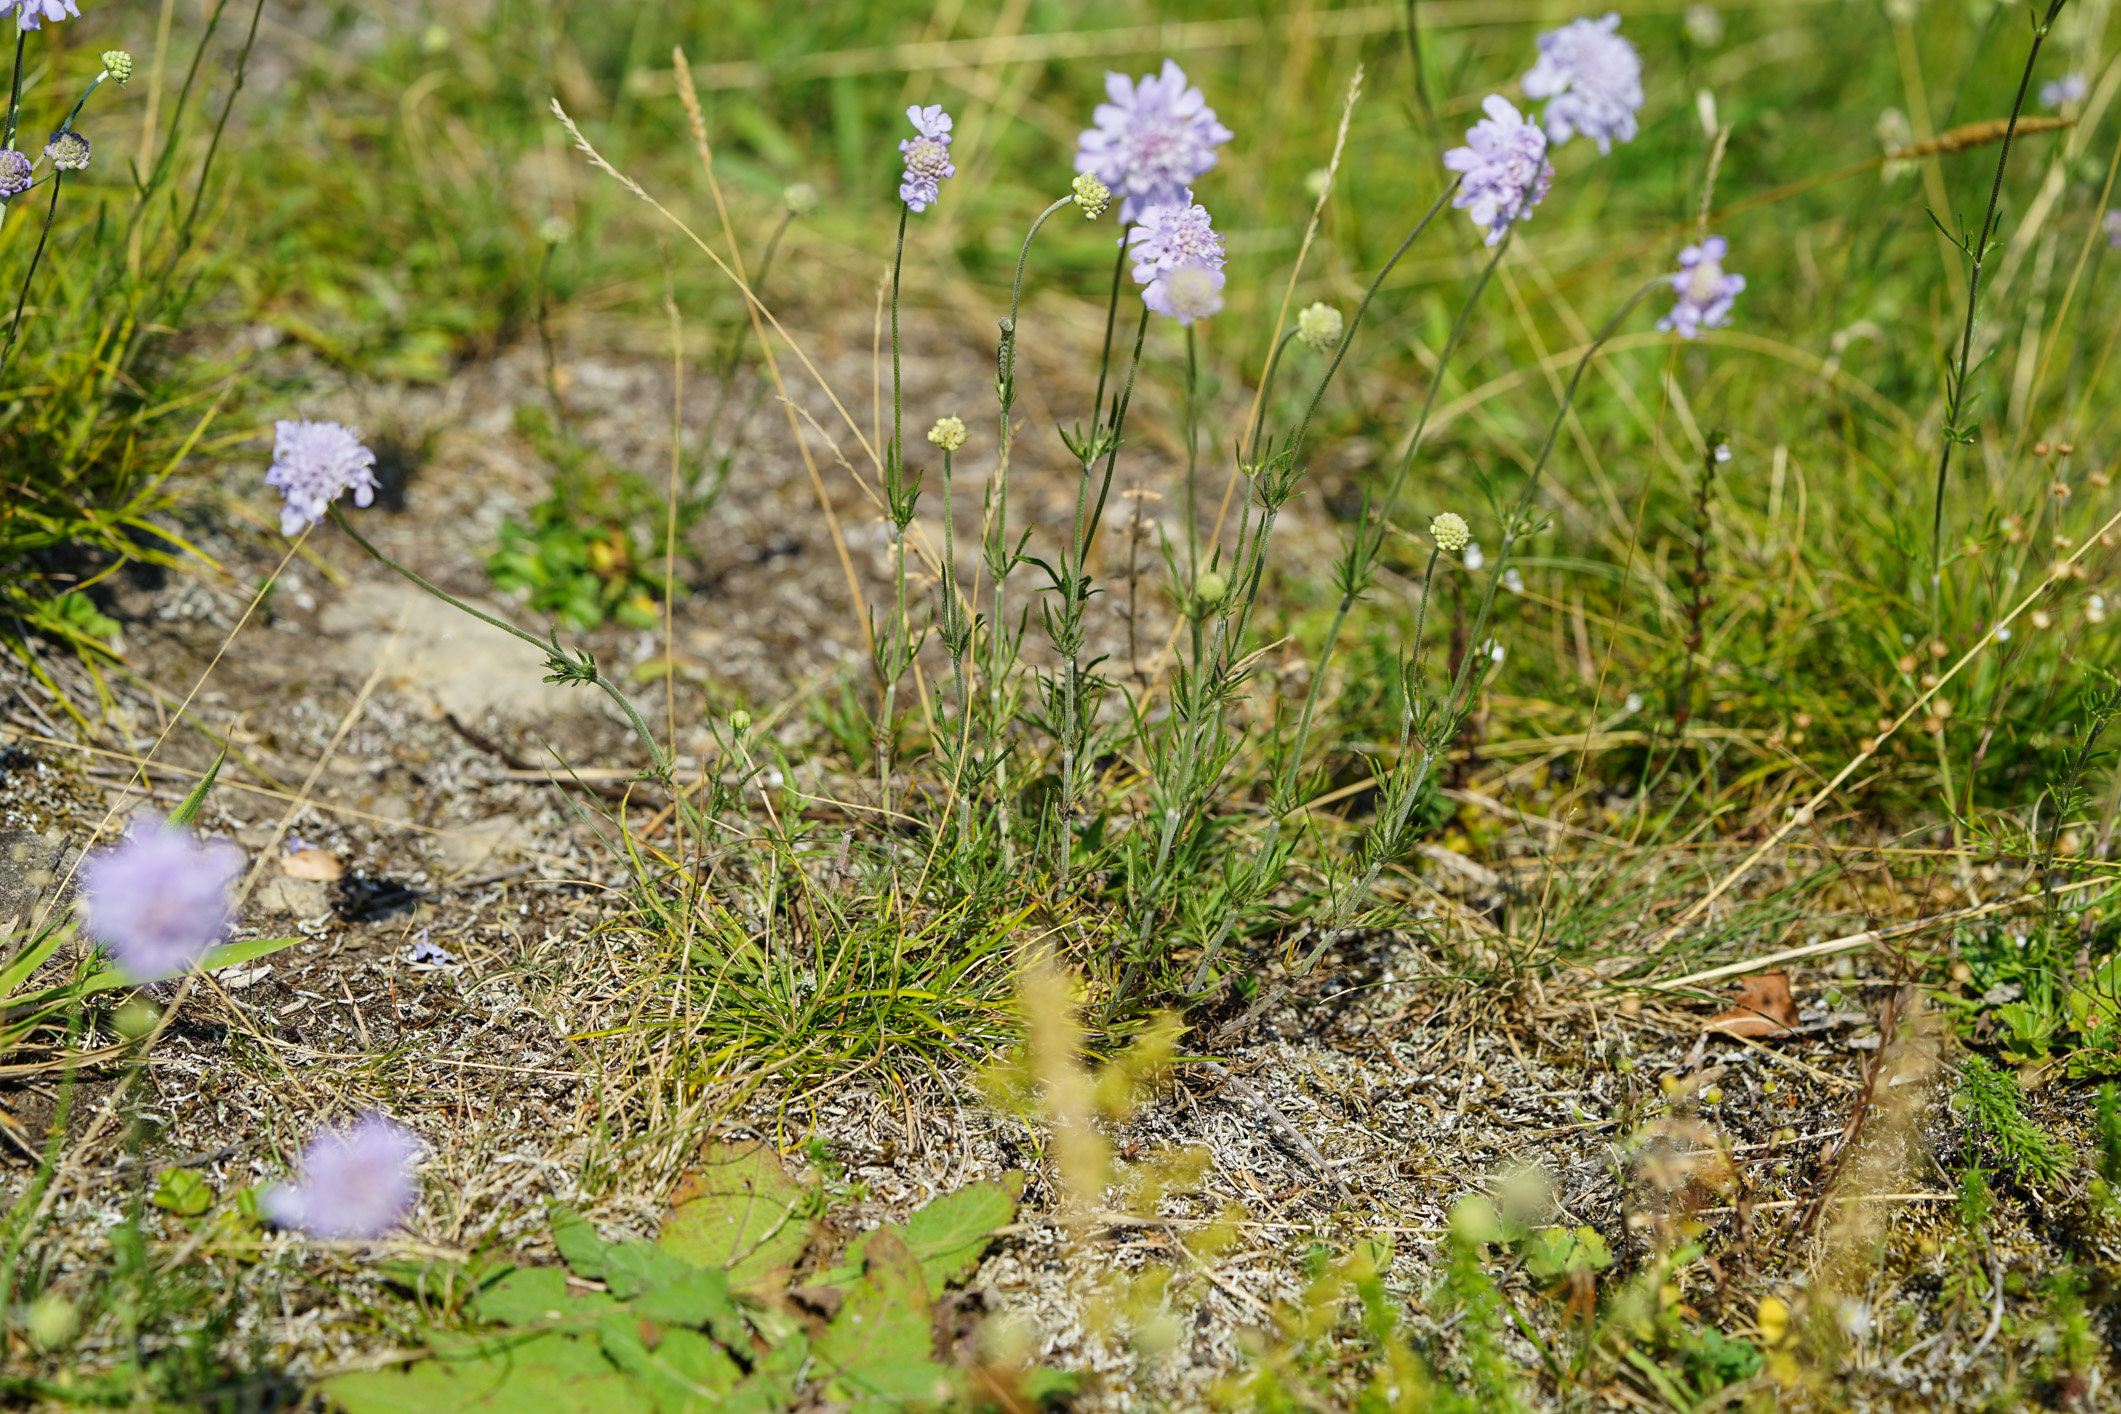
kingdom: Plantae
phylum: Tracheophyta
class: Magnoliopsida
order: Dipsacales
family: Caprifoliaceae
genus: Scabiosa
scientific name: Scabiosa canescens
